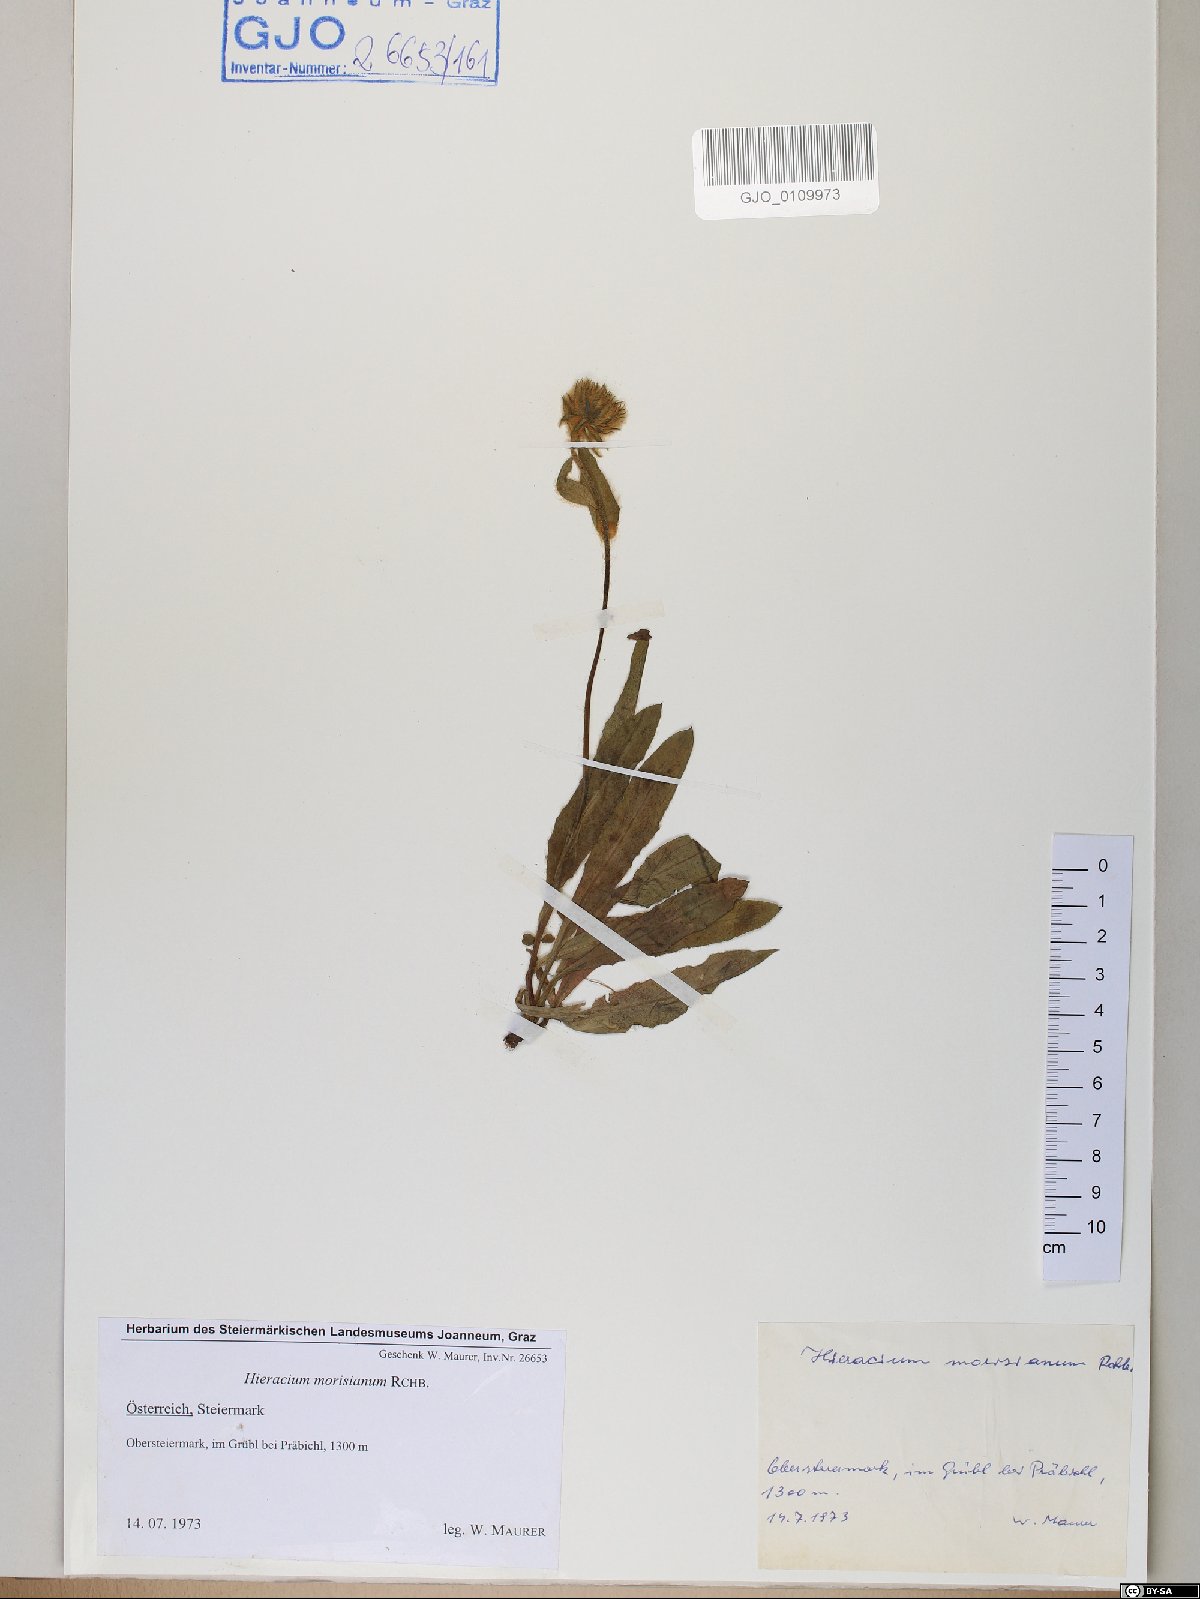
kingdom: Plantae
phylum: Tracheophyta
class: Magnoliopsida
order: Asterales
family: Asteraceae
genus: Hieracium
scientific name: Hieracium pilosum
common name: Fimbriate-pitted hawkweed
